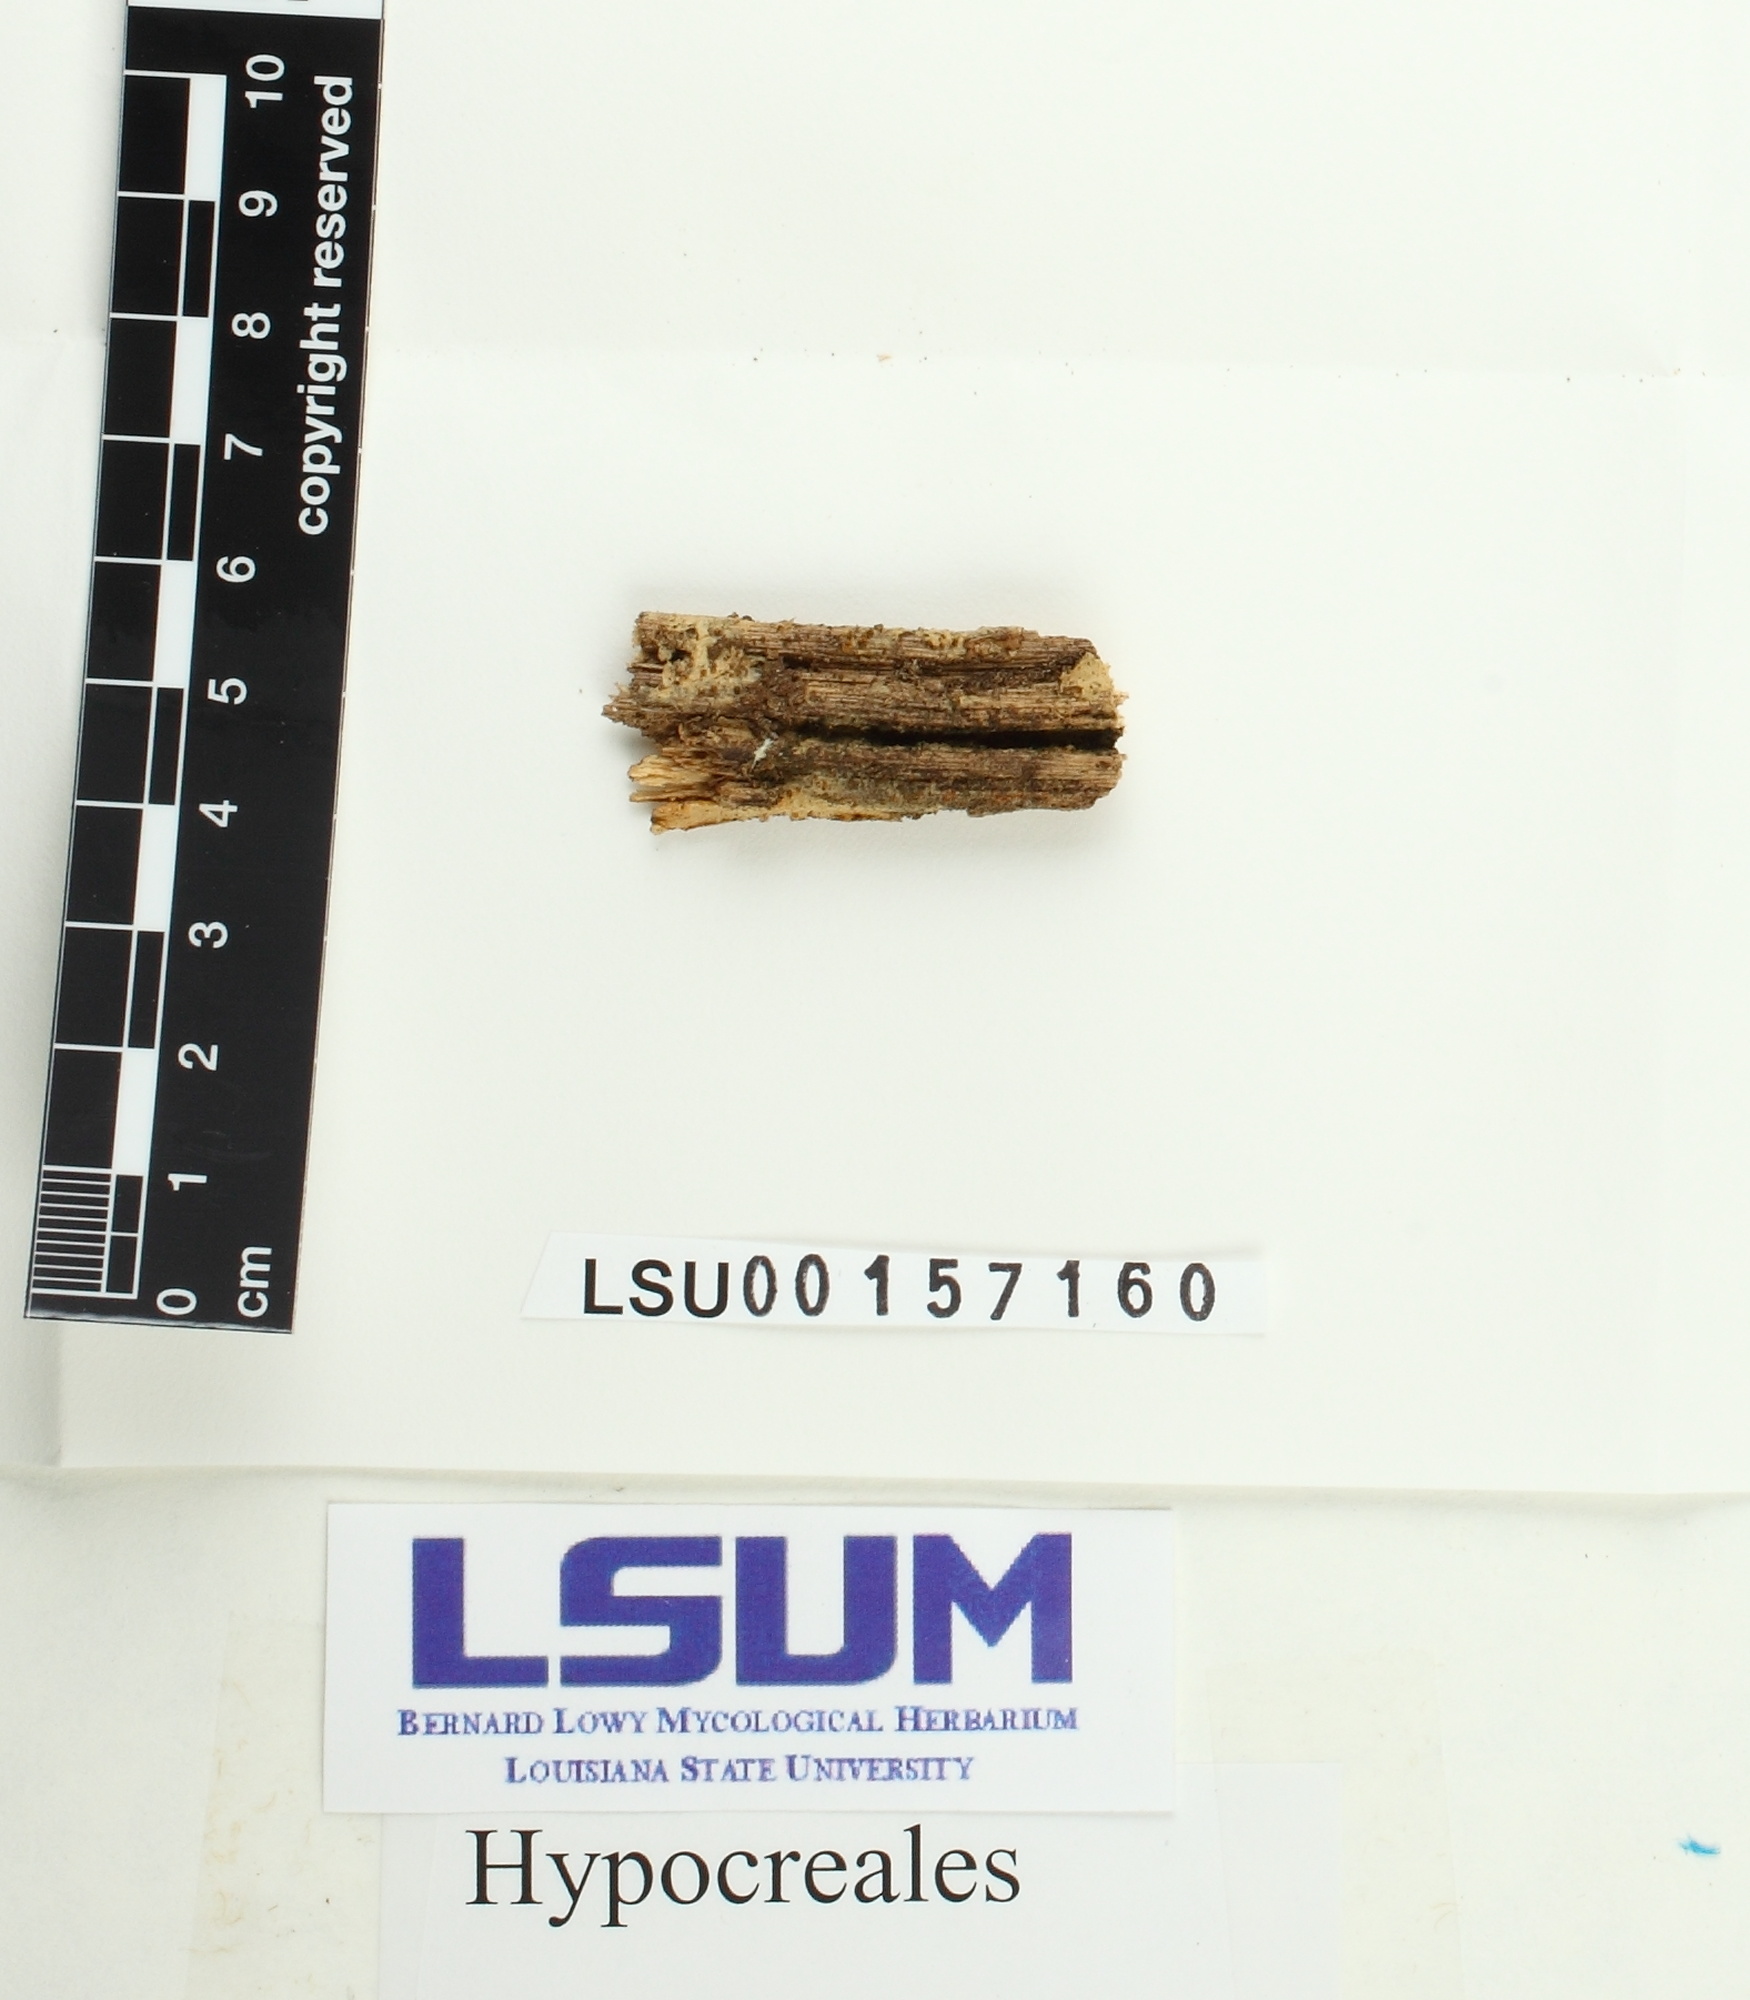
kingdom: Fungi
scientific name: Fungi
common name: Fungi
